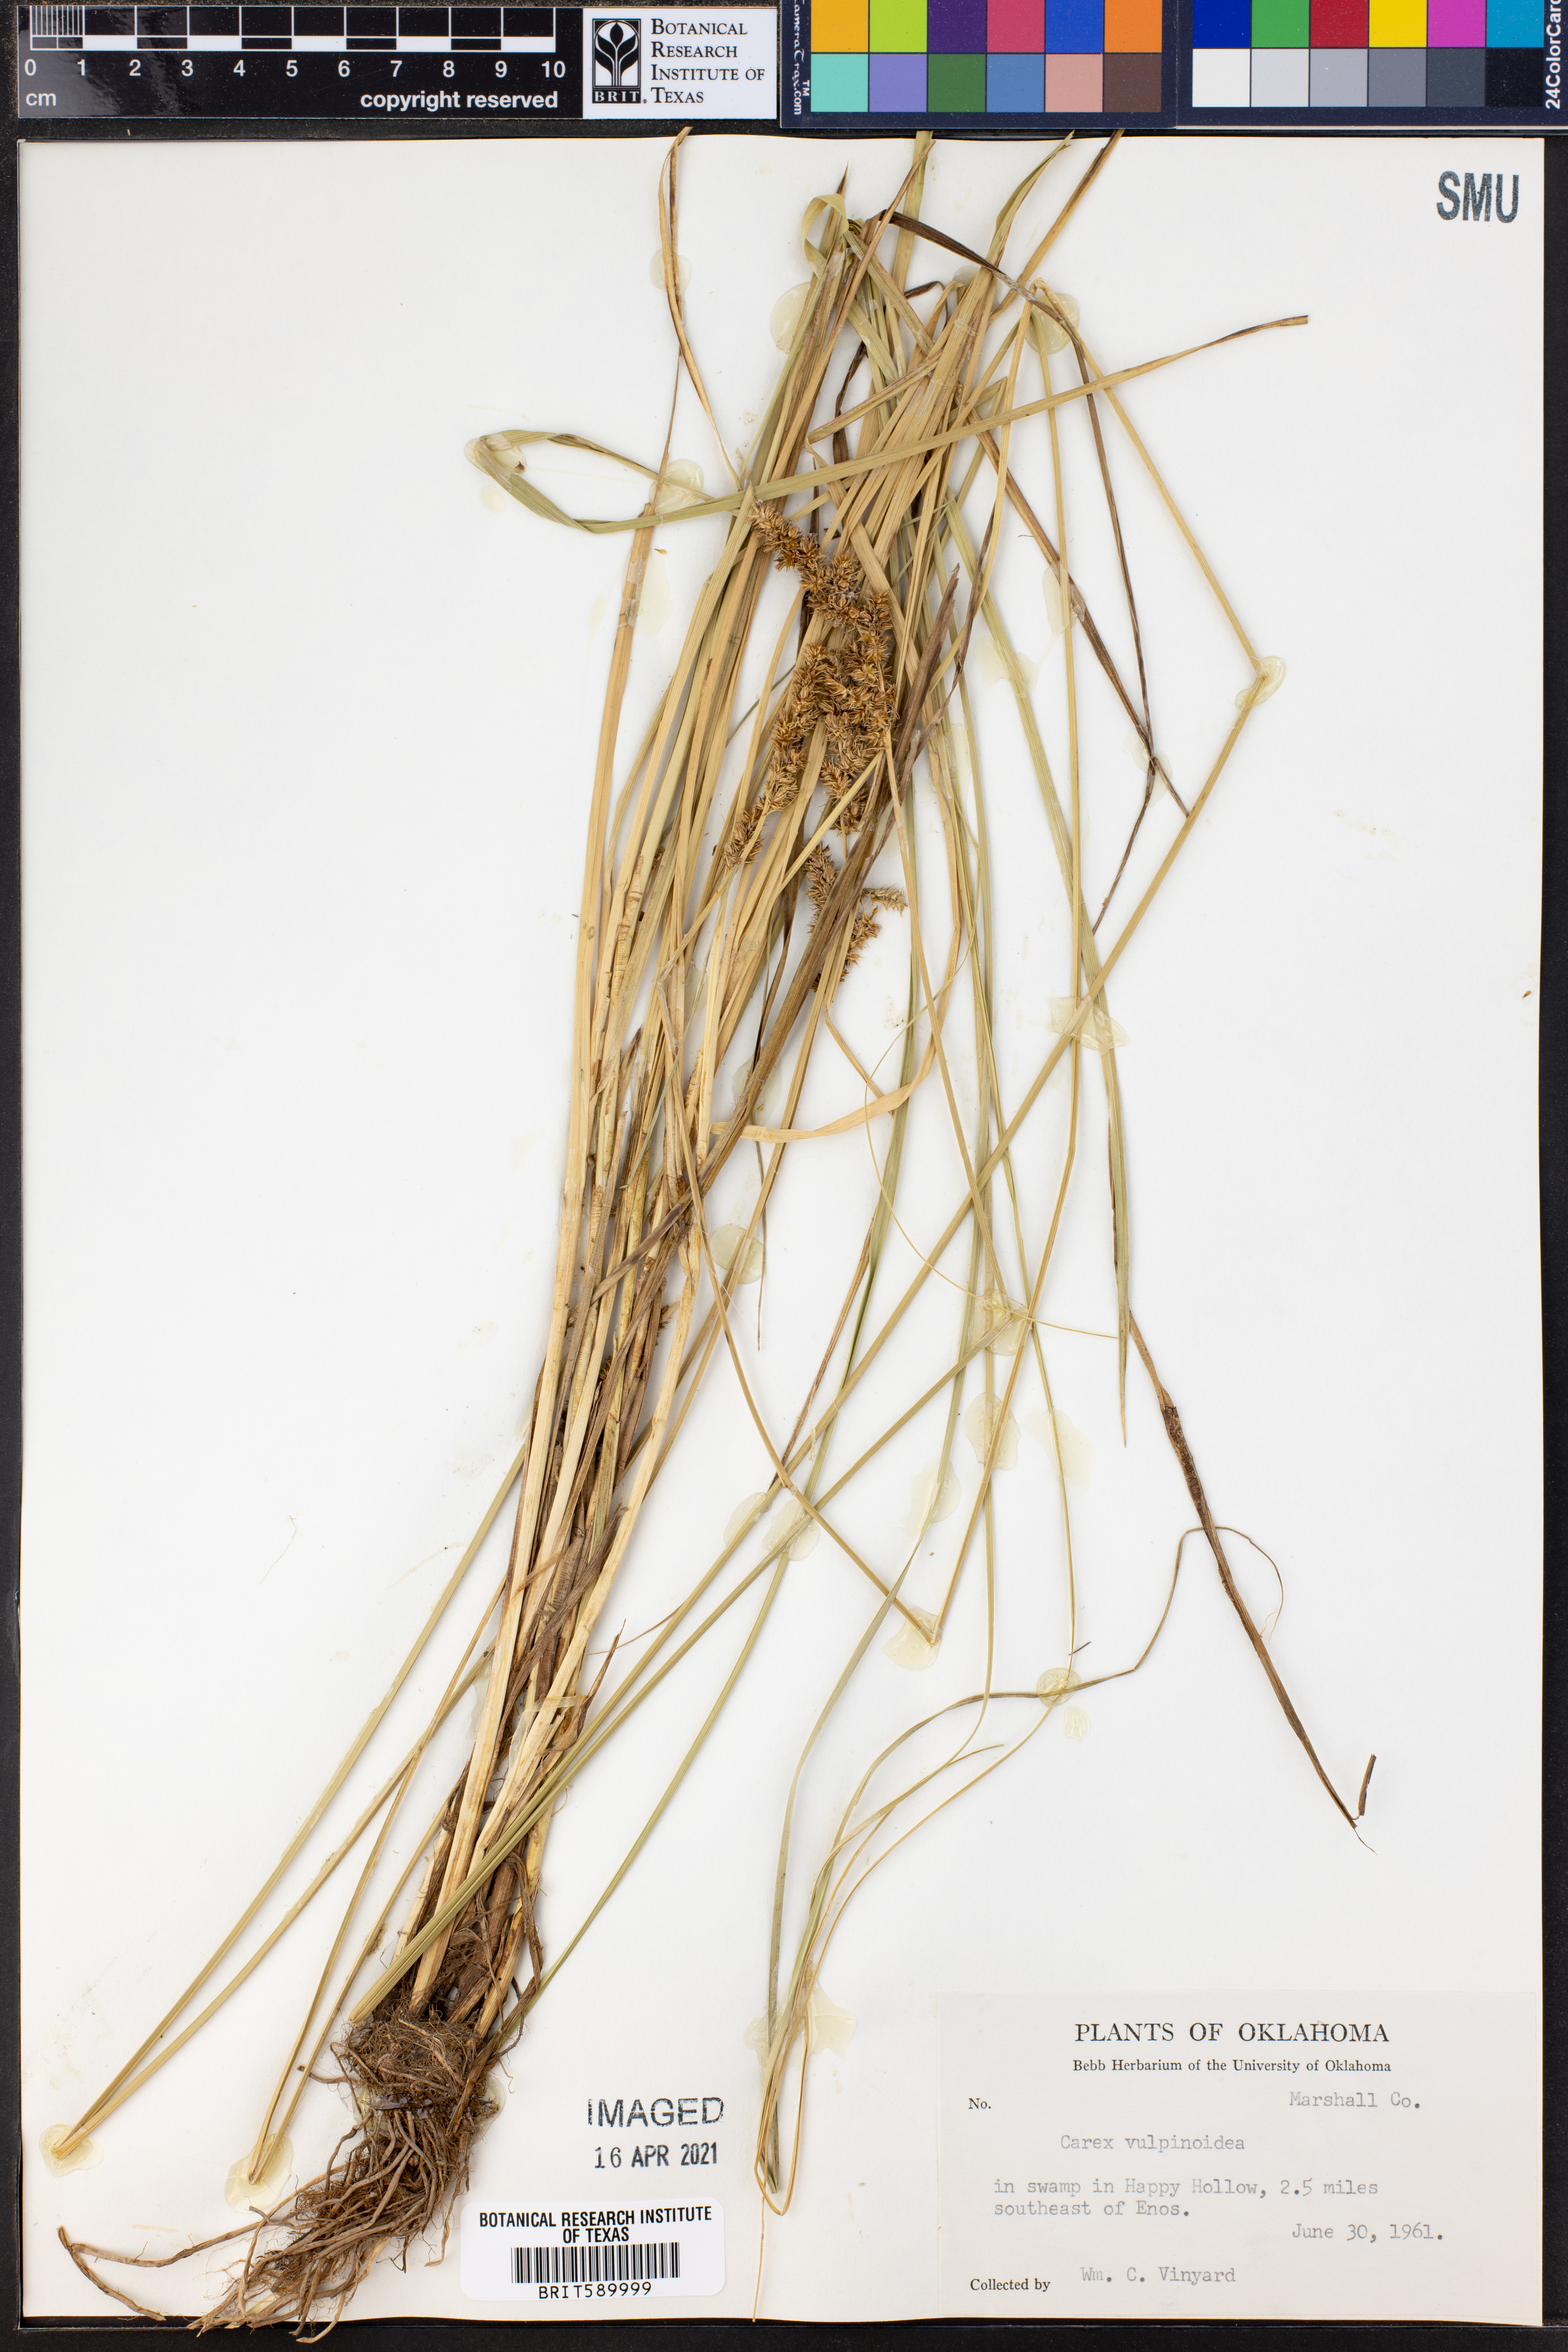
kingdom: Plantae
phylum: Tracheophyta
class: Liliopsida
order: Poales
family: Cyperaceae
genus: Carex
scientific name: Carex vulpinoidea
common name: American fox-sedge
